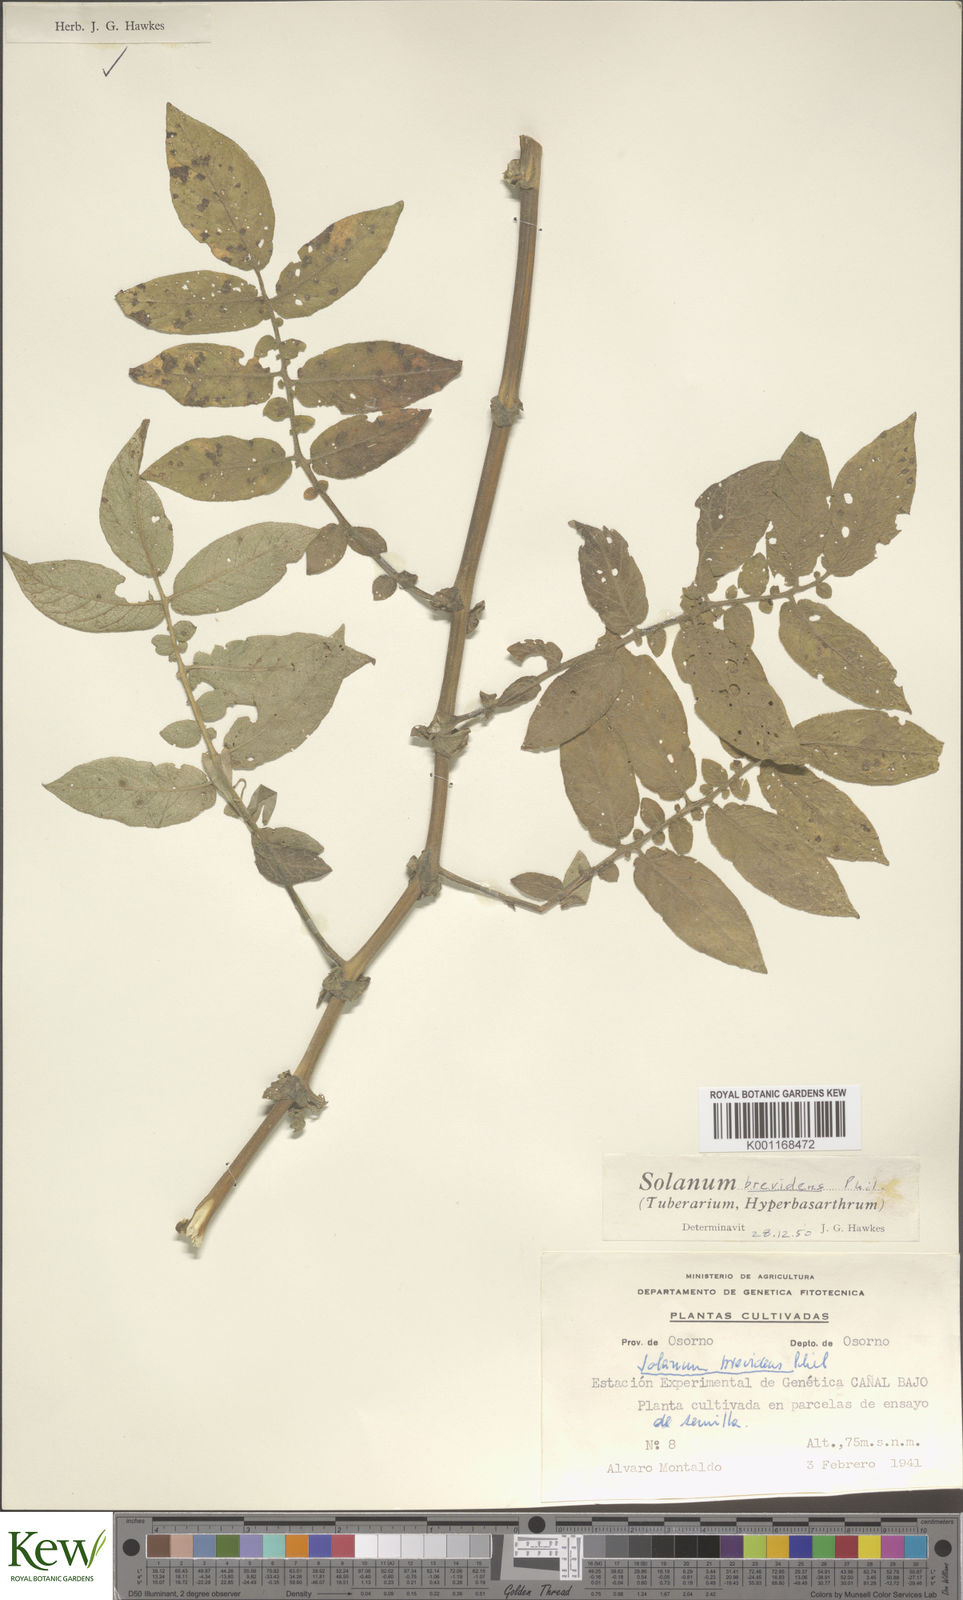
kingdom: Plantae
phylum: Tracheophyta
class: Magnoliopsida
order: Solanales
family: Solanaceae
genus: Solanum
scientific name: Solanum palustre
